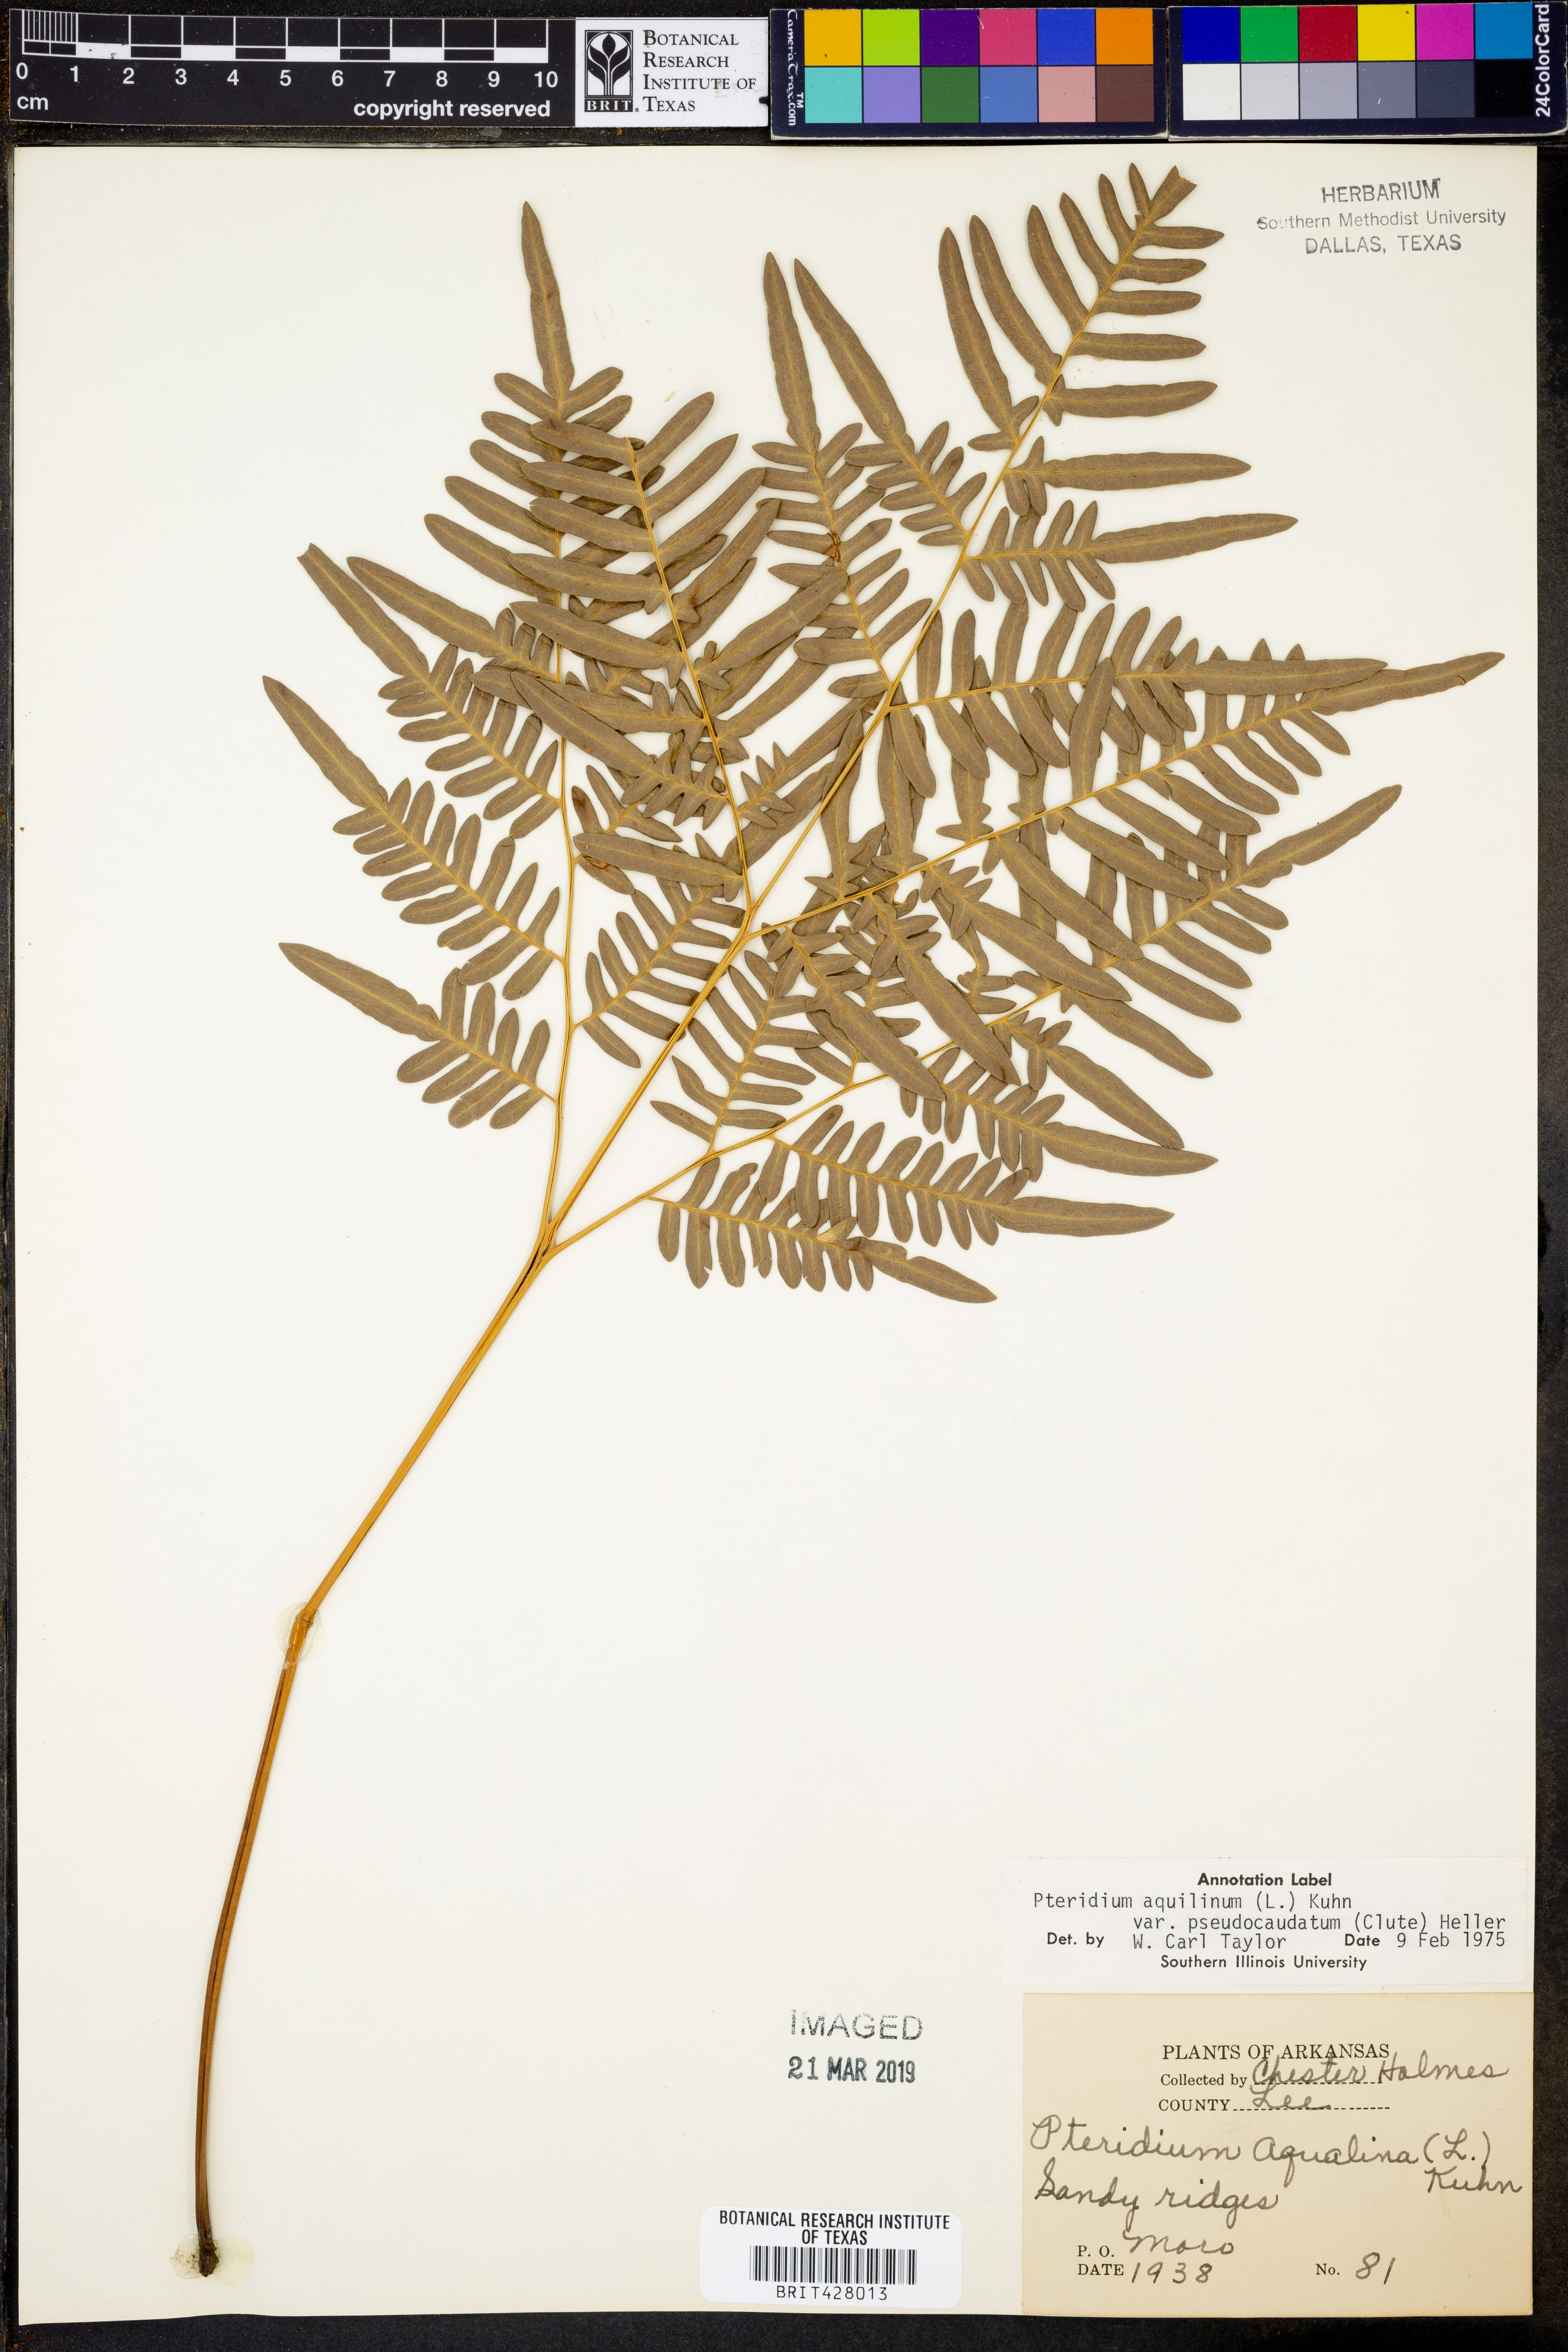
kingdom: Plantae
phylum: Tracheophyta
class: Polypodiopsida
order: Polypodiales
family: Dennstaedtiaceae
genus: Pteridium
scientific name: Pteridium aquilinum
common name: Bracken
